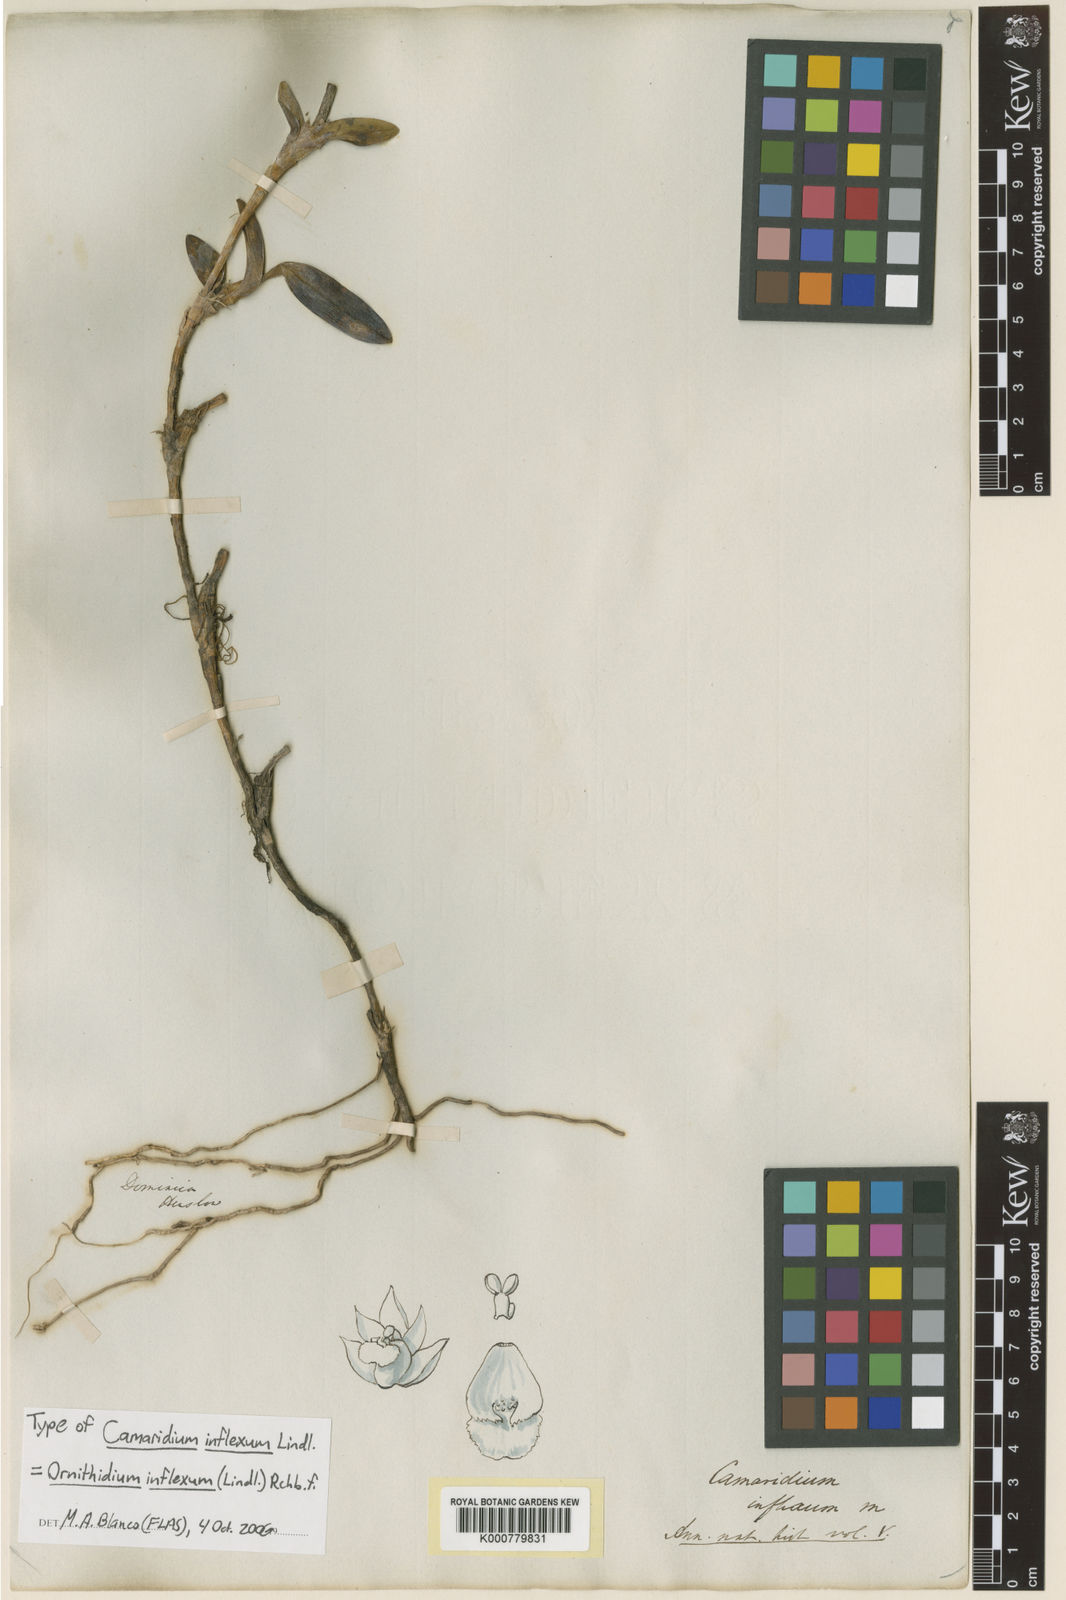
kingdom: Plantae
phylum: Tracheophyta
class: Liliopsida
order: Asparagales
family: Orchidaceae
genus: Maxillaria
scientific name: Maxillaria inflexa
